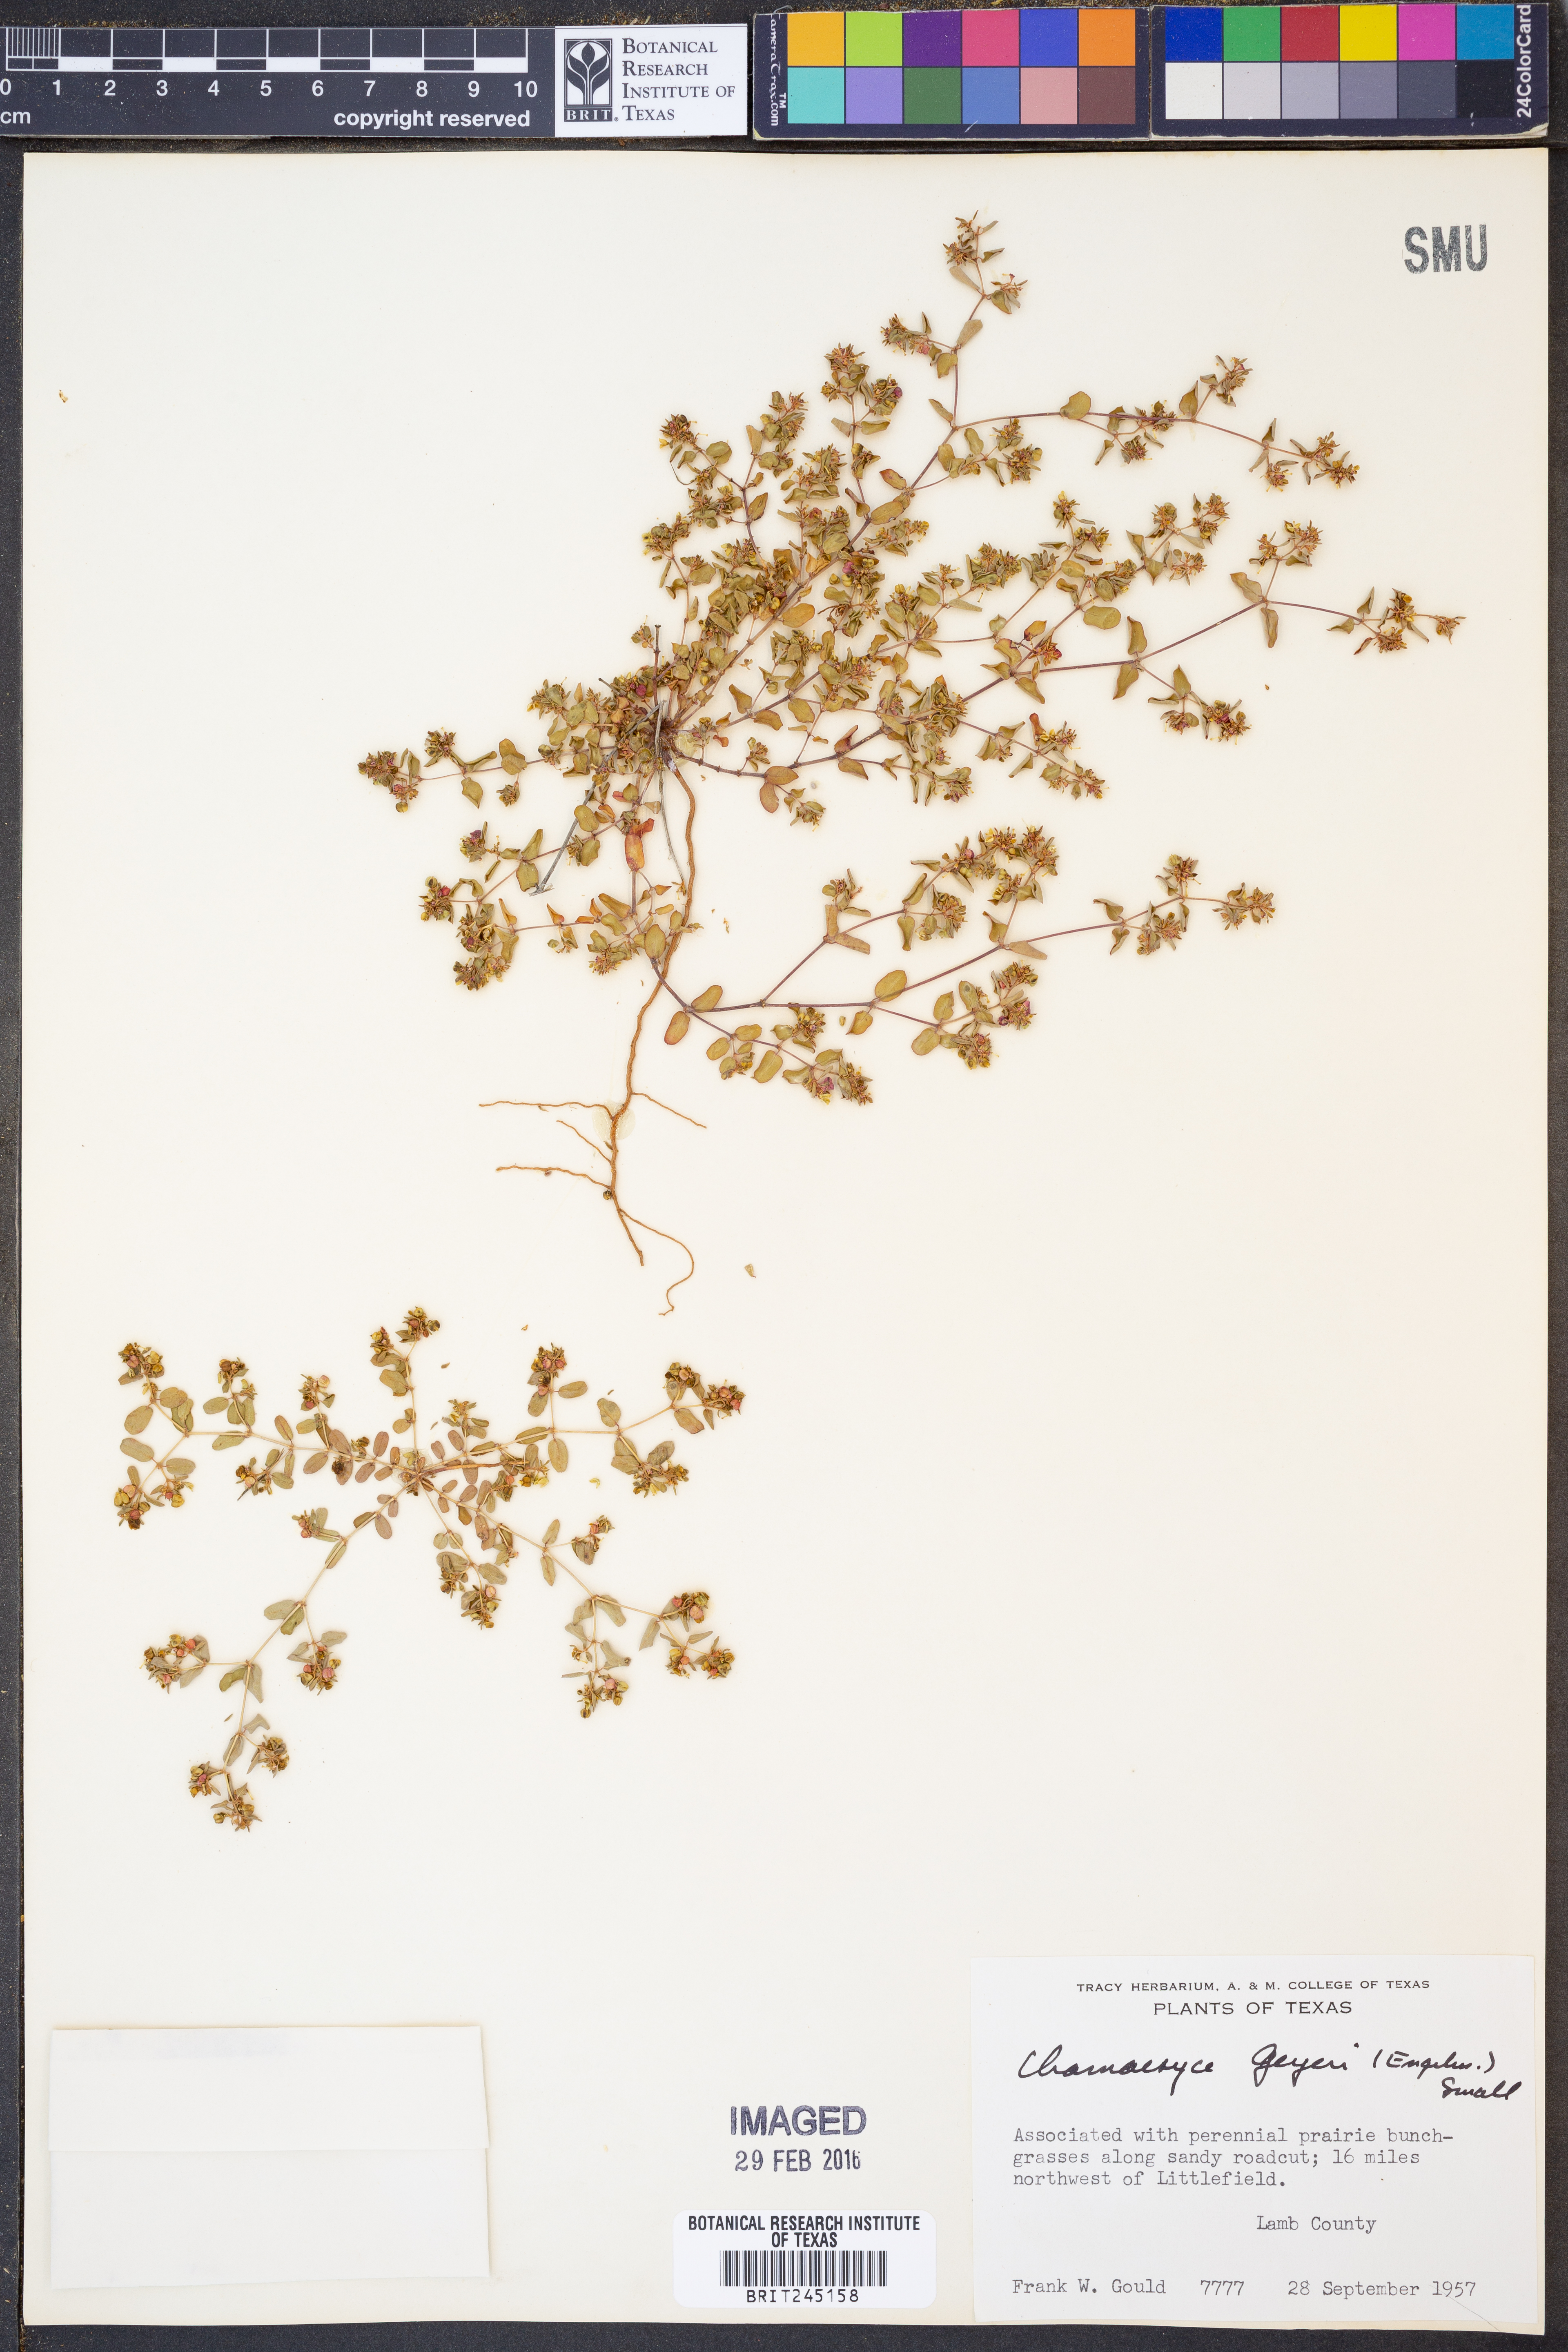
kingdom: Plantae
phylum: Tracheophyta
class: Magnoliopsida
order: Malpighiales
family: Euphorbiaceae
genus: Euphorbia
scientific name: Euphorbia geyeri
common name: Geyer's spurge
